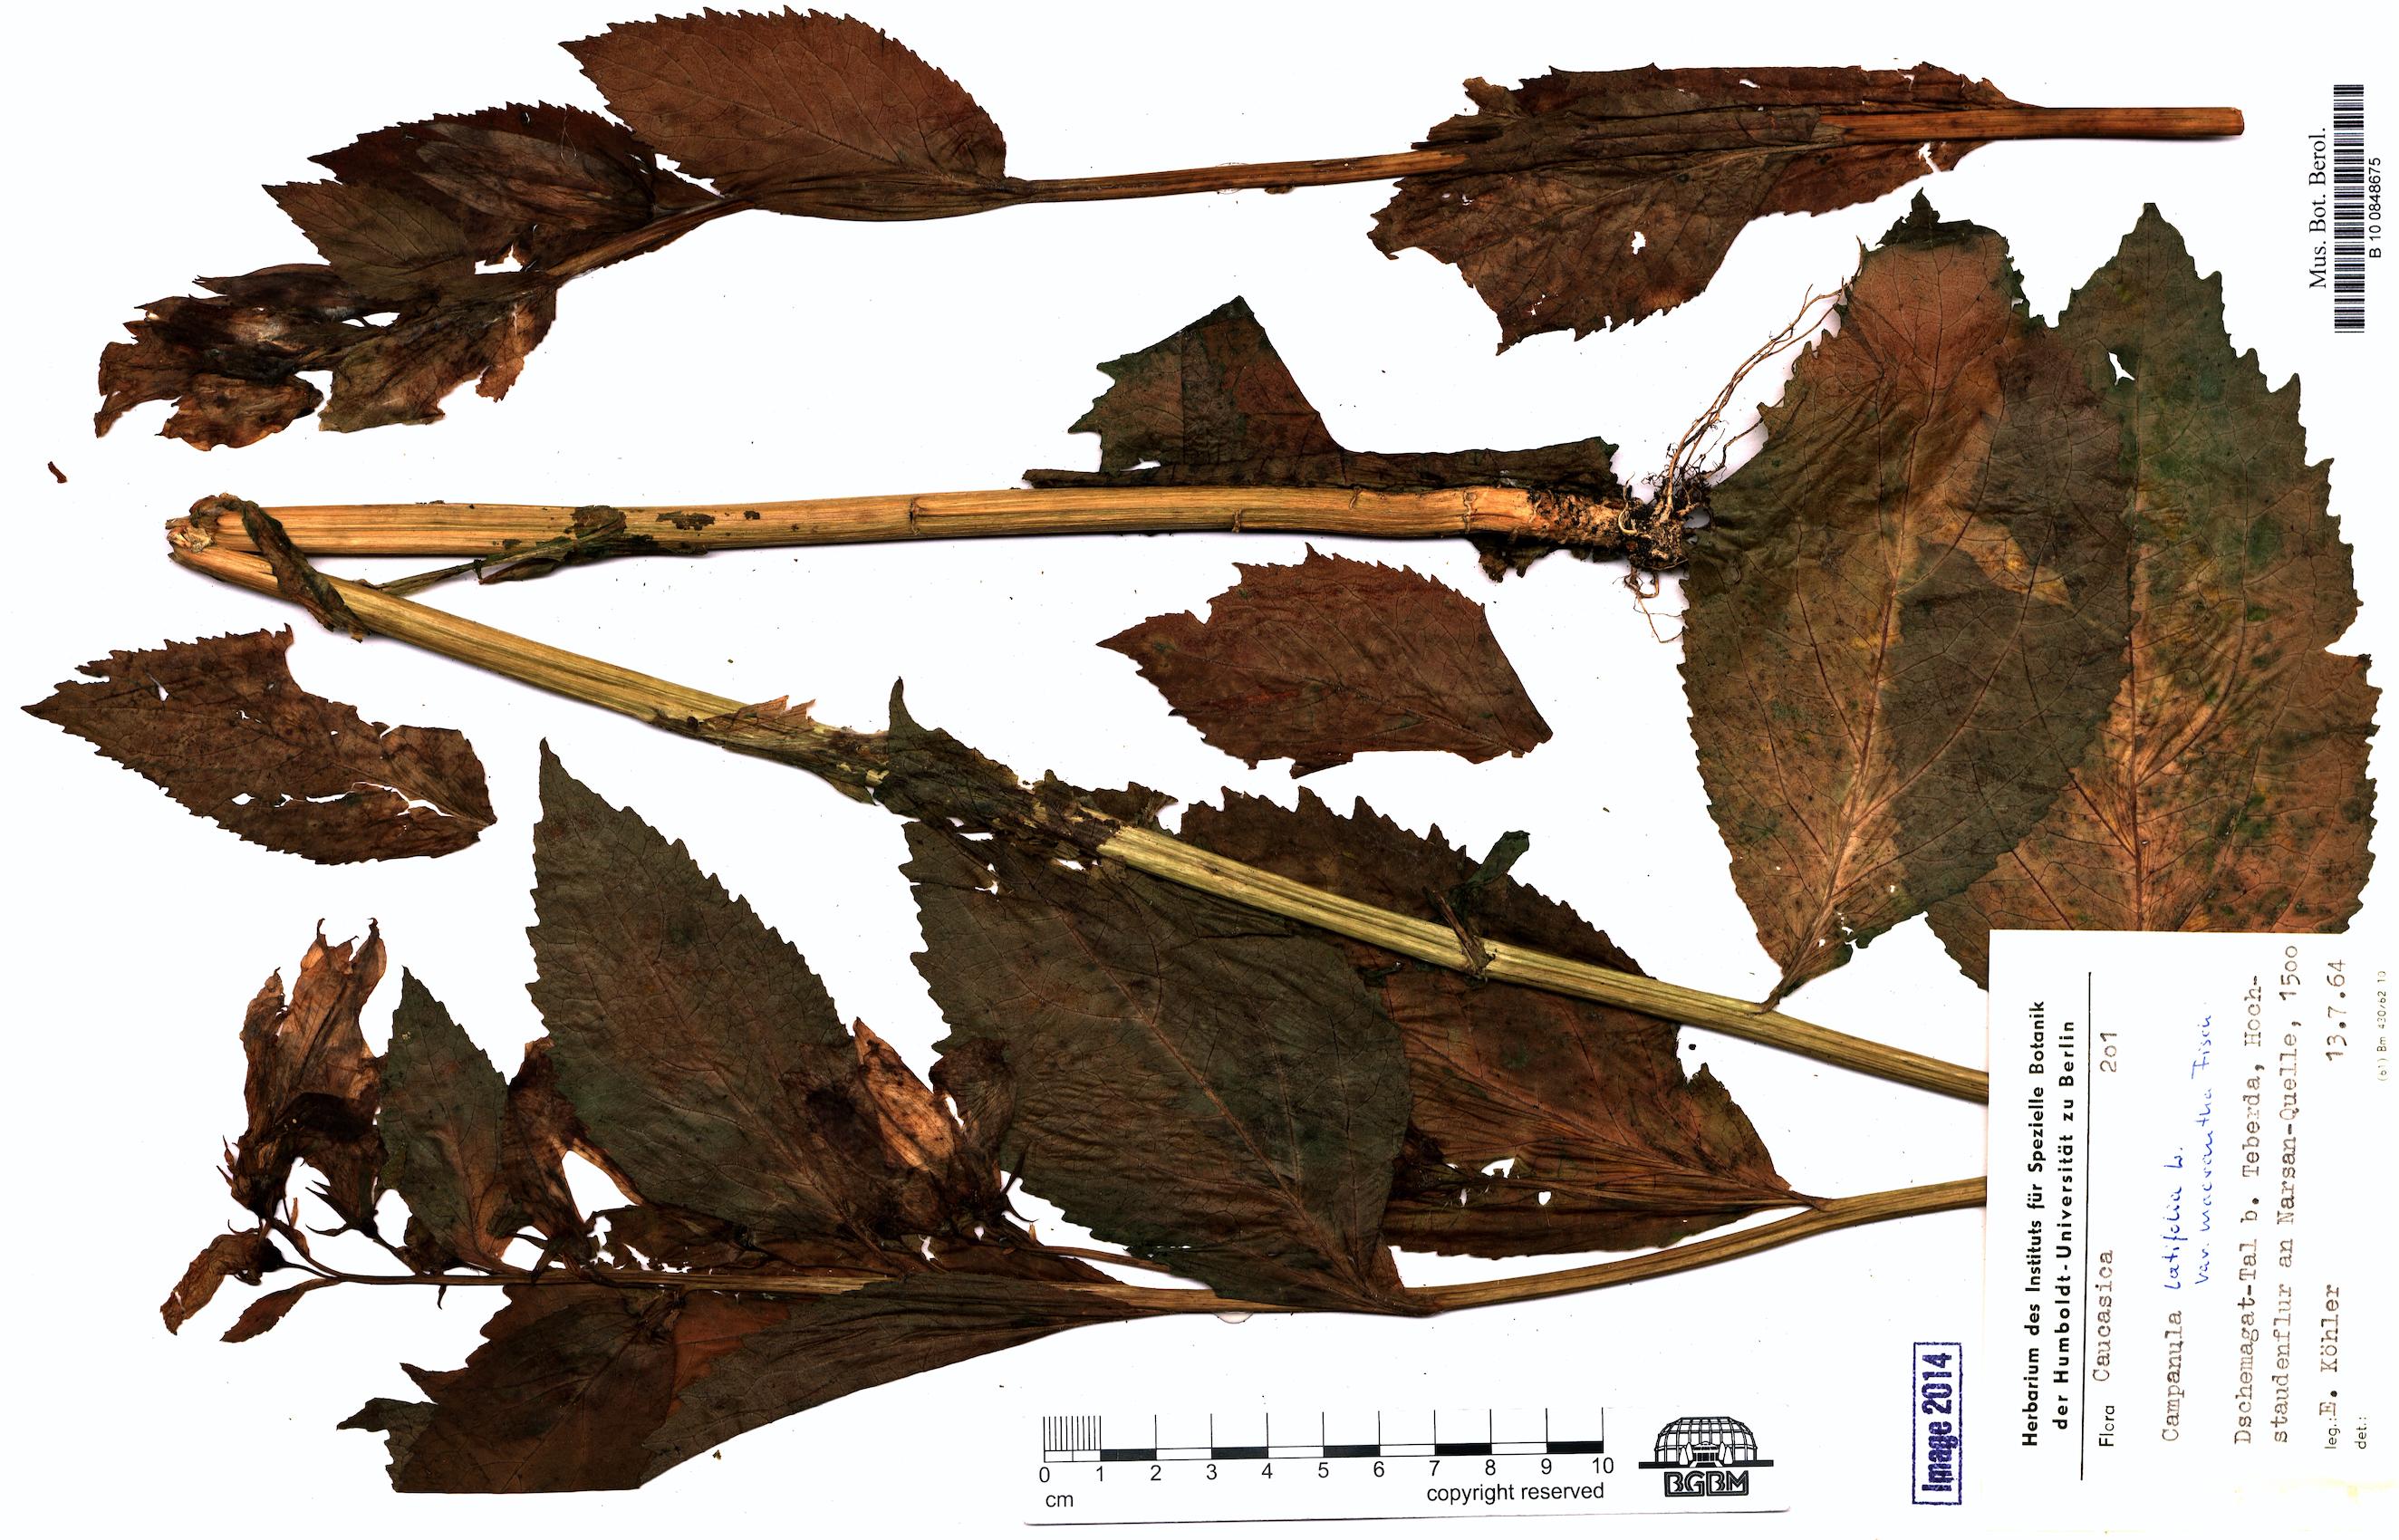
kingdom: Plantae
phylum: Tracheophyta
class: Magnoliopsida
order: Asterales
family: Campanulaceae
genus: Campanula
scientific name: Campanula latifolia
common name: Giant bellflower
